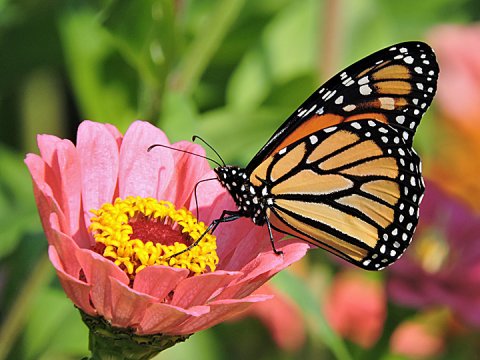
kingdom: Animalia
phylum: Arthropoda
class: Insecta
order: Lepidoptera
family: Nymphalidae
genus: Danaus
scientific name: Danaus plexippus
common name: Monarch
